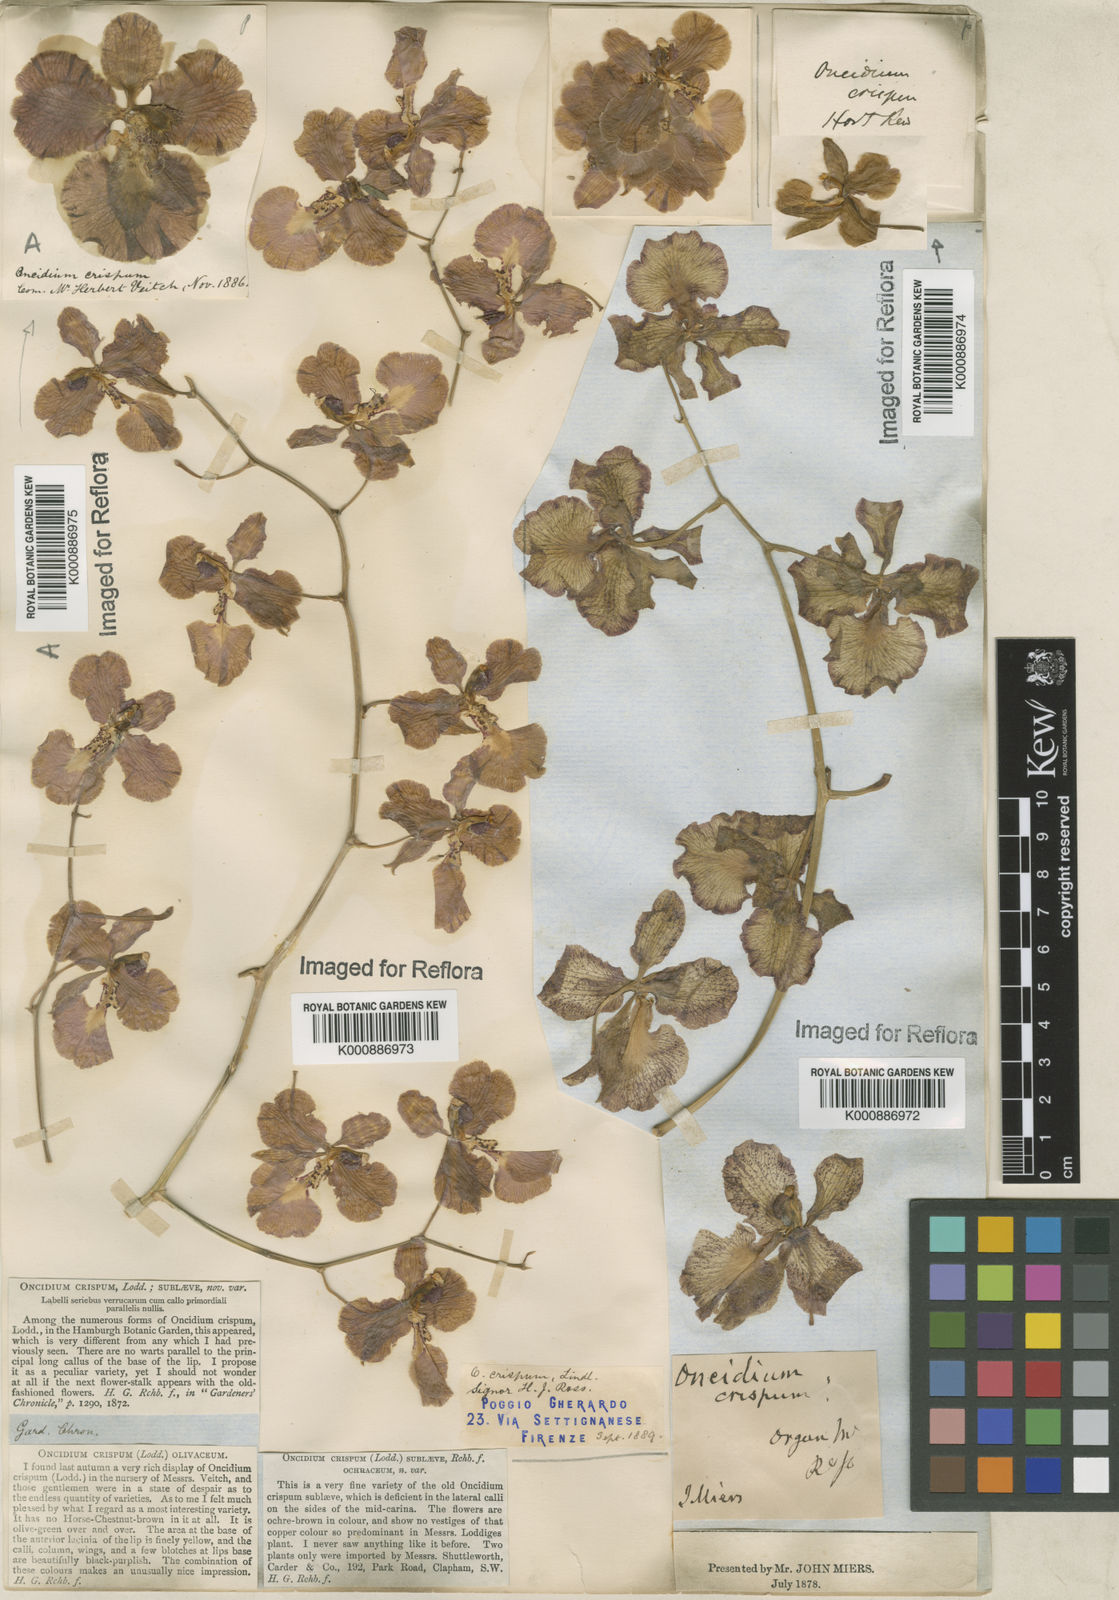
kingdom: Plantae
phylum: Tracheophyta
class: Liliopsida
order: Asparagales
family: Orchidaceae
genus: Gomesa
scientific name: Gomesa imperatoris-maximiliani
